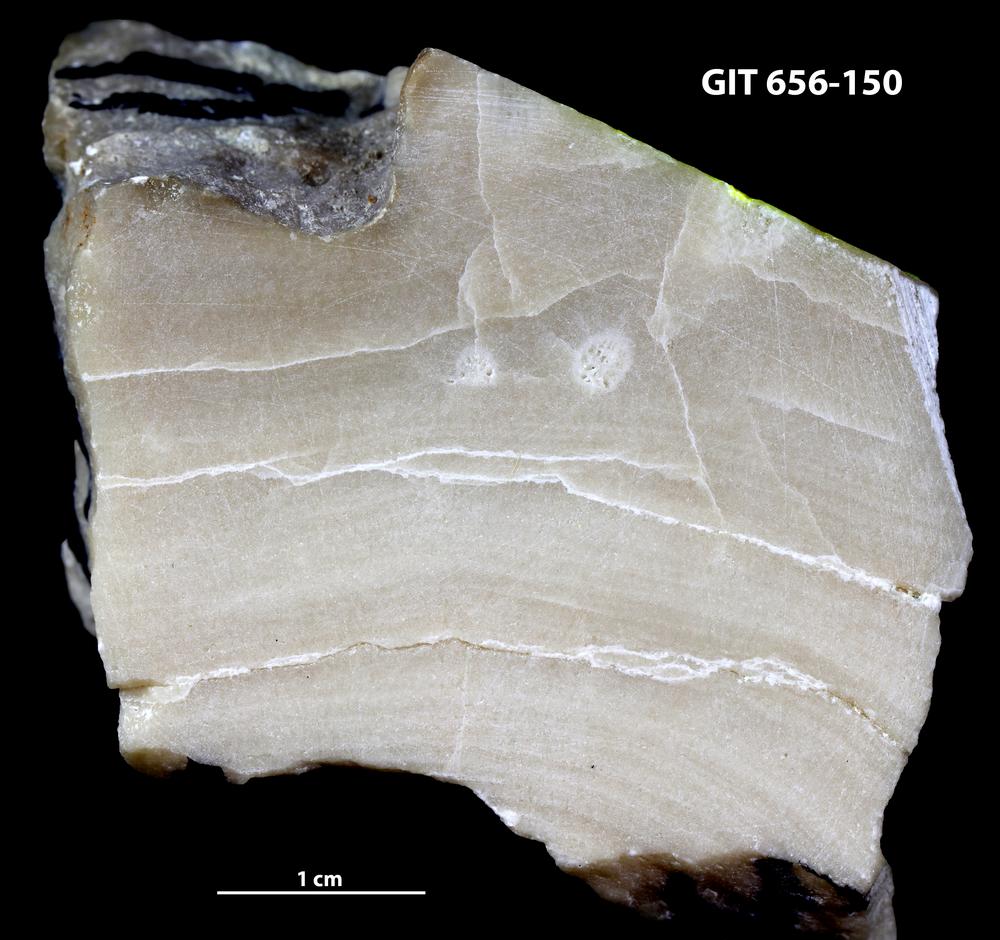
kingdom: Animalia
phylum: Porifera
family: Stromatoporidae
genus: Stromatopora
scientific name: Stromatopora
